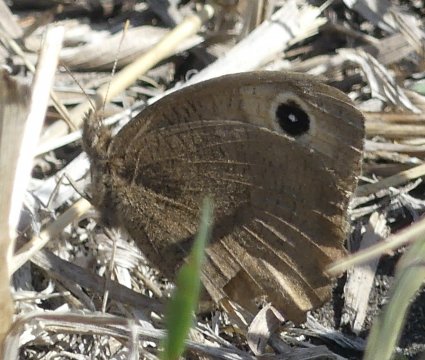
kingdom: Animalia
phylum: Arthropoda
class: Insecta
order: Lepidoptera
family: Nymphalidae
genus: Cercyonis
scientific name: Cercyonis pegala
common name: Common Wood-Nymph
